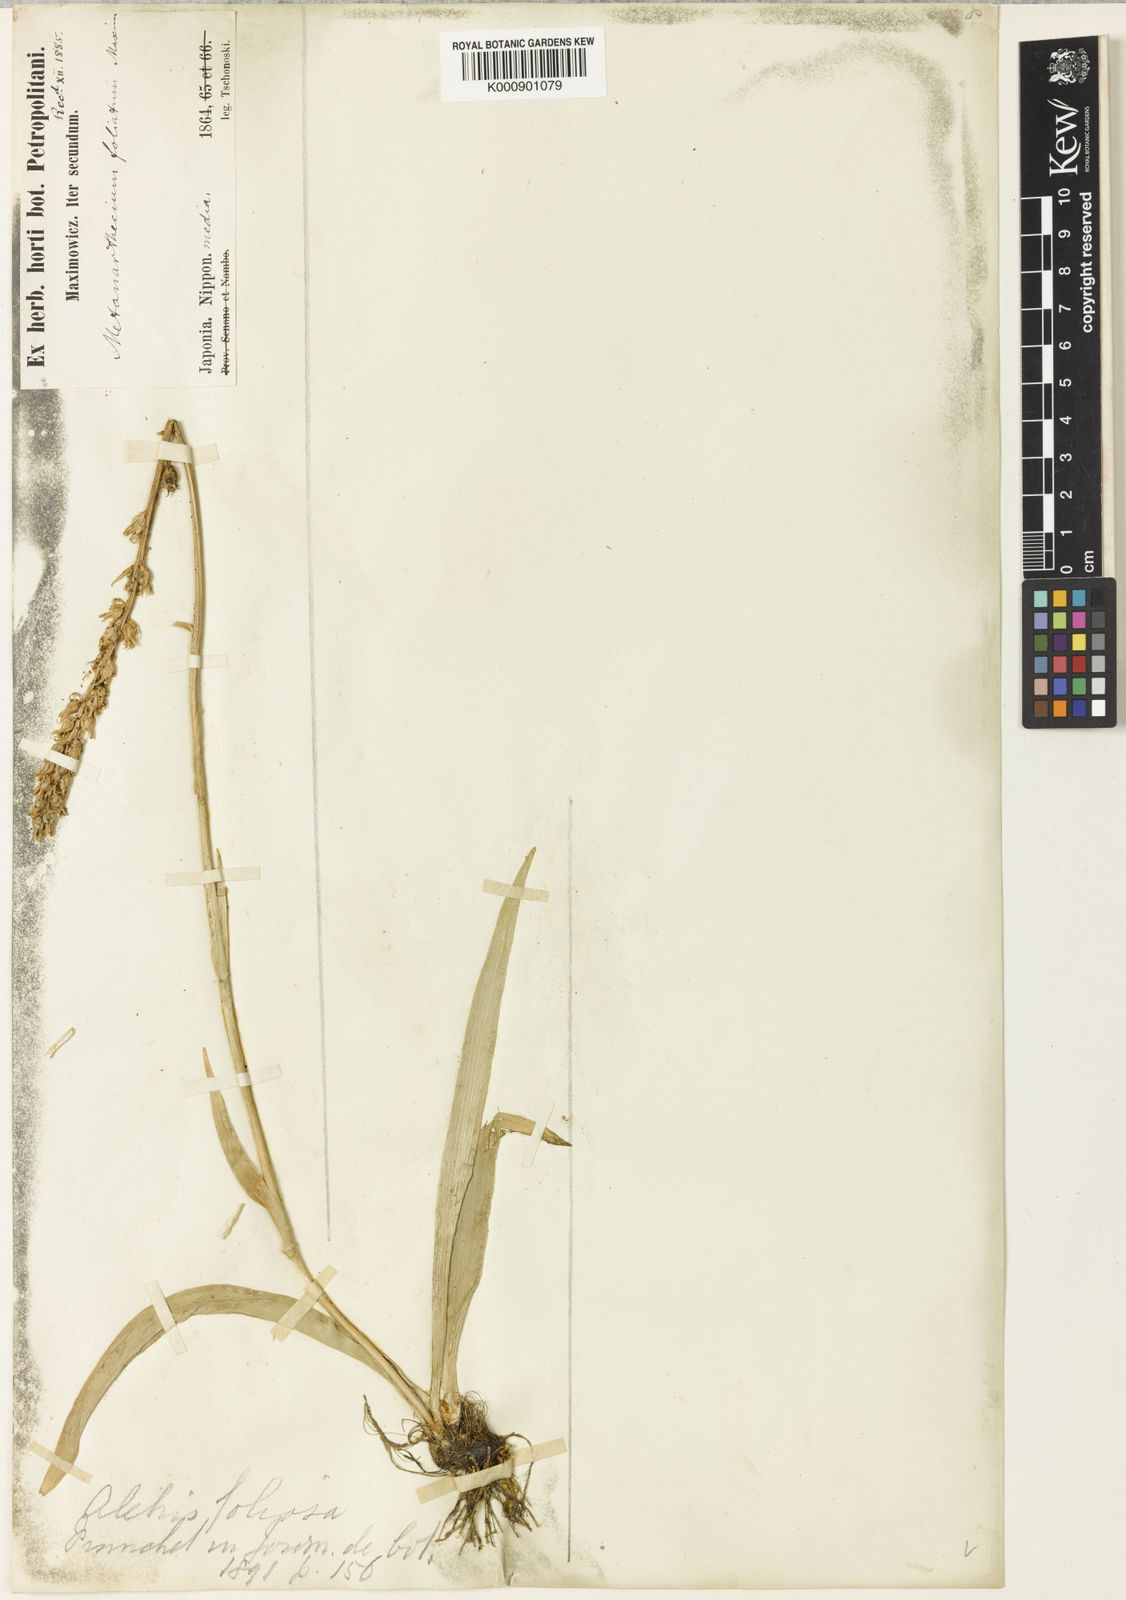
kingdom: Plantae
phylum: Tracheophyta
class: Liliopsida
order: Dioscoreales
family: Nartheciaceae
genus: Aletris
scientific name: Aletris foliosa
